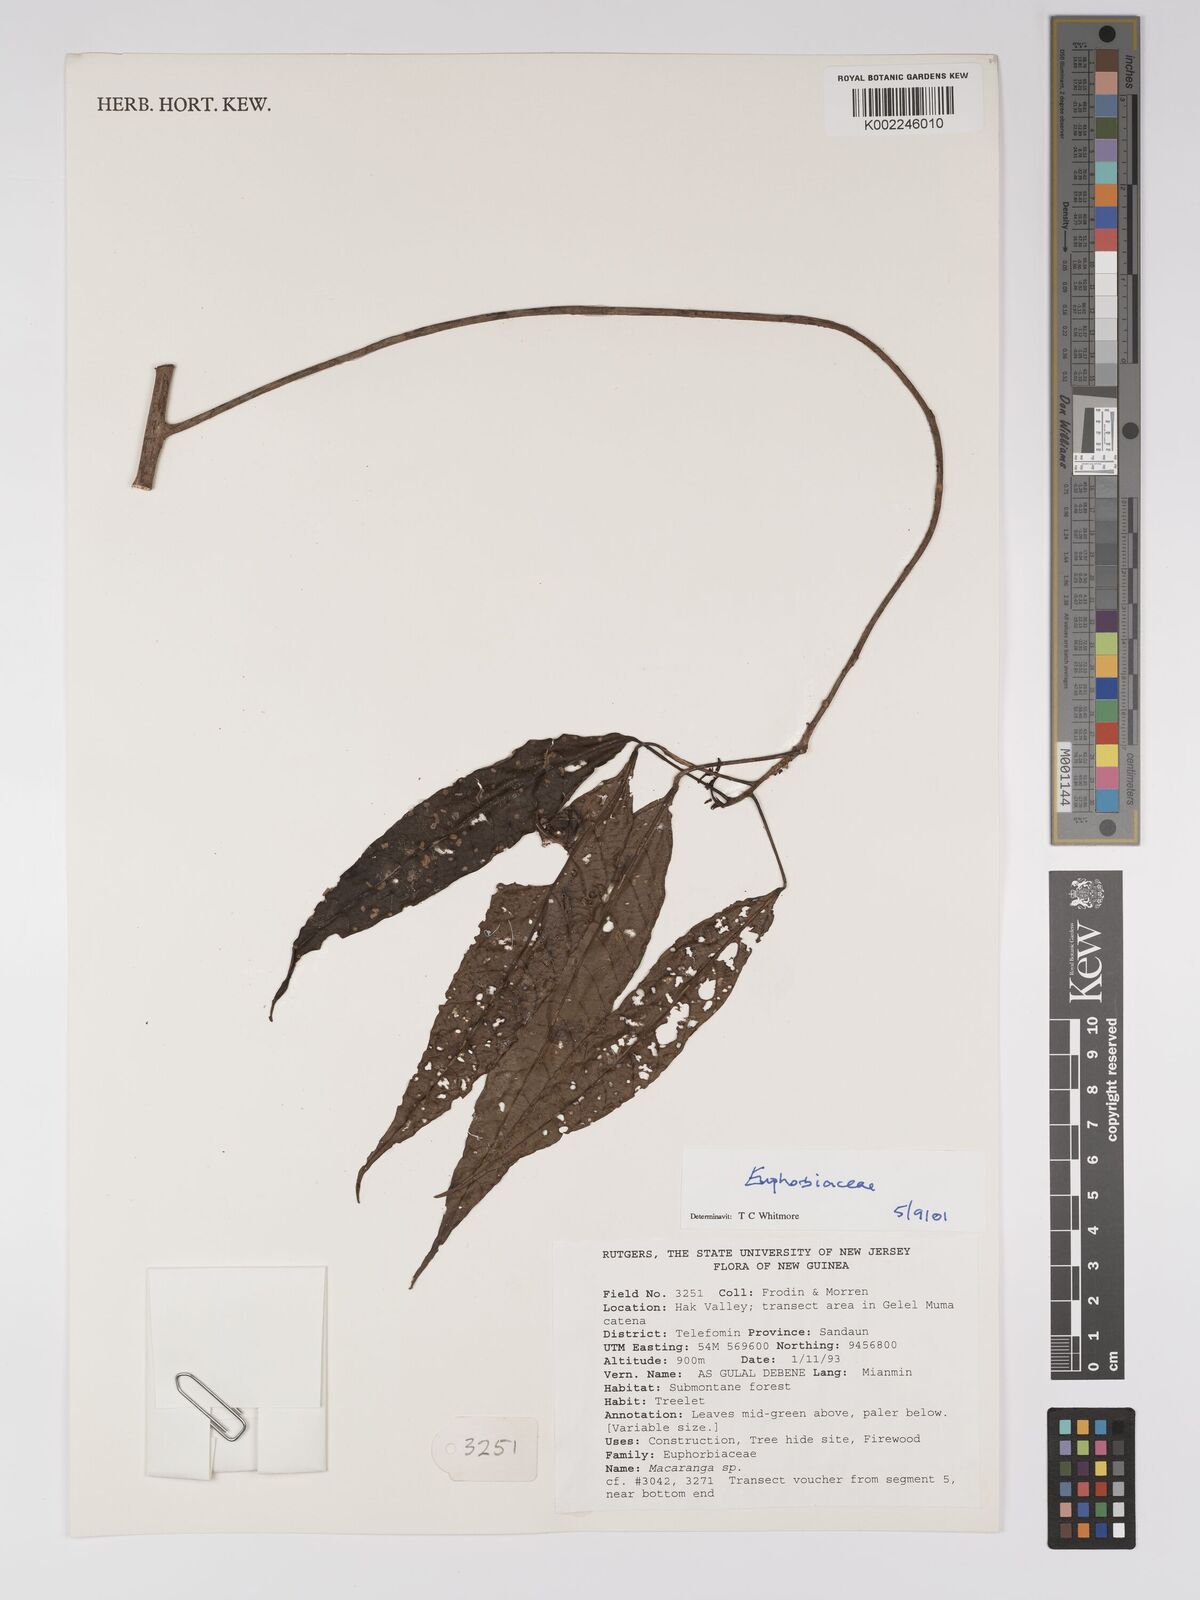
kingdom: Plantae
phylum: Tracheophyta
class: Magnoliopsida
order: Malpighiales
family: Euphorbiaceae
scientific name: Euphorbiaceae
